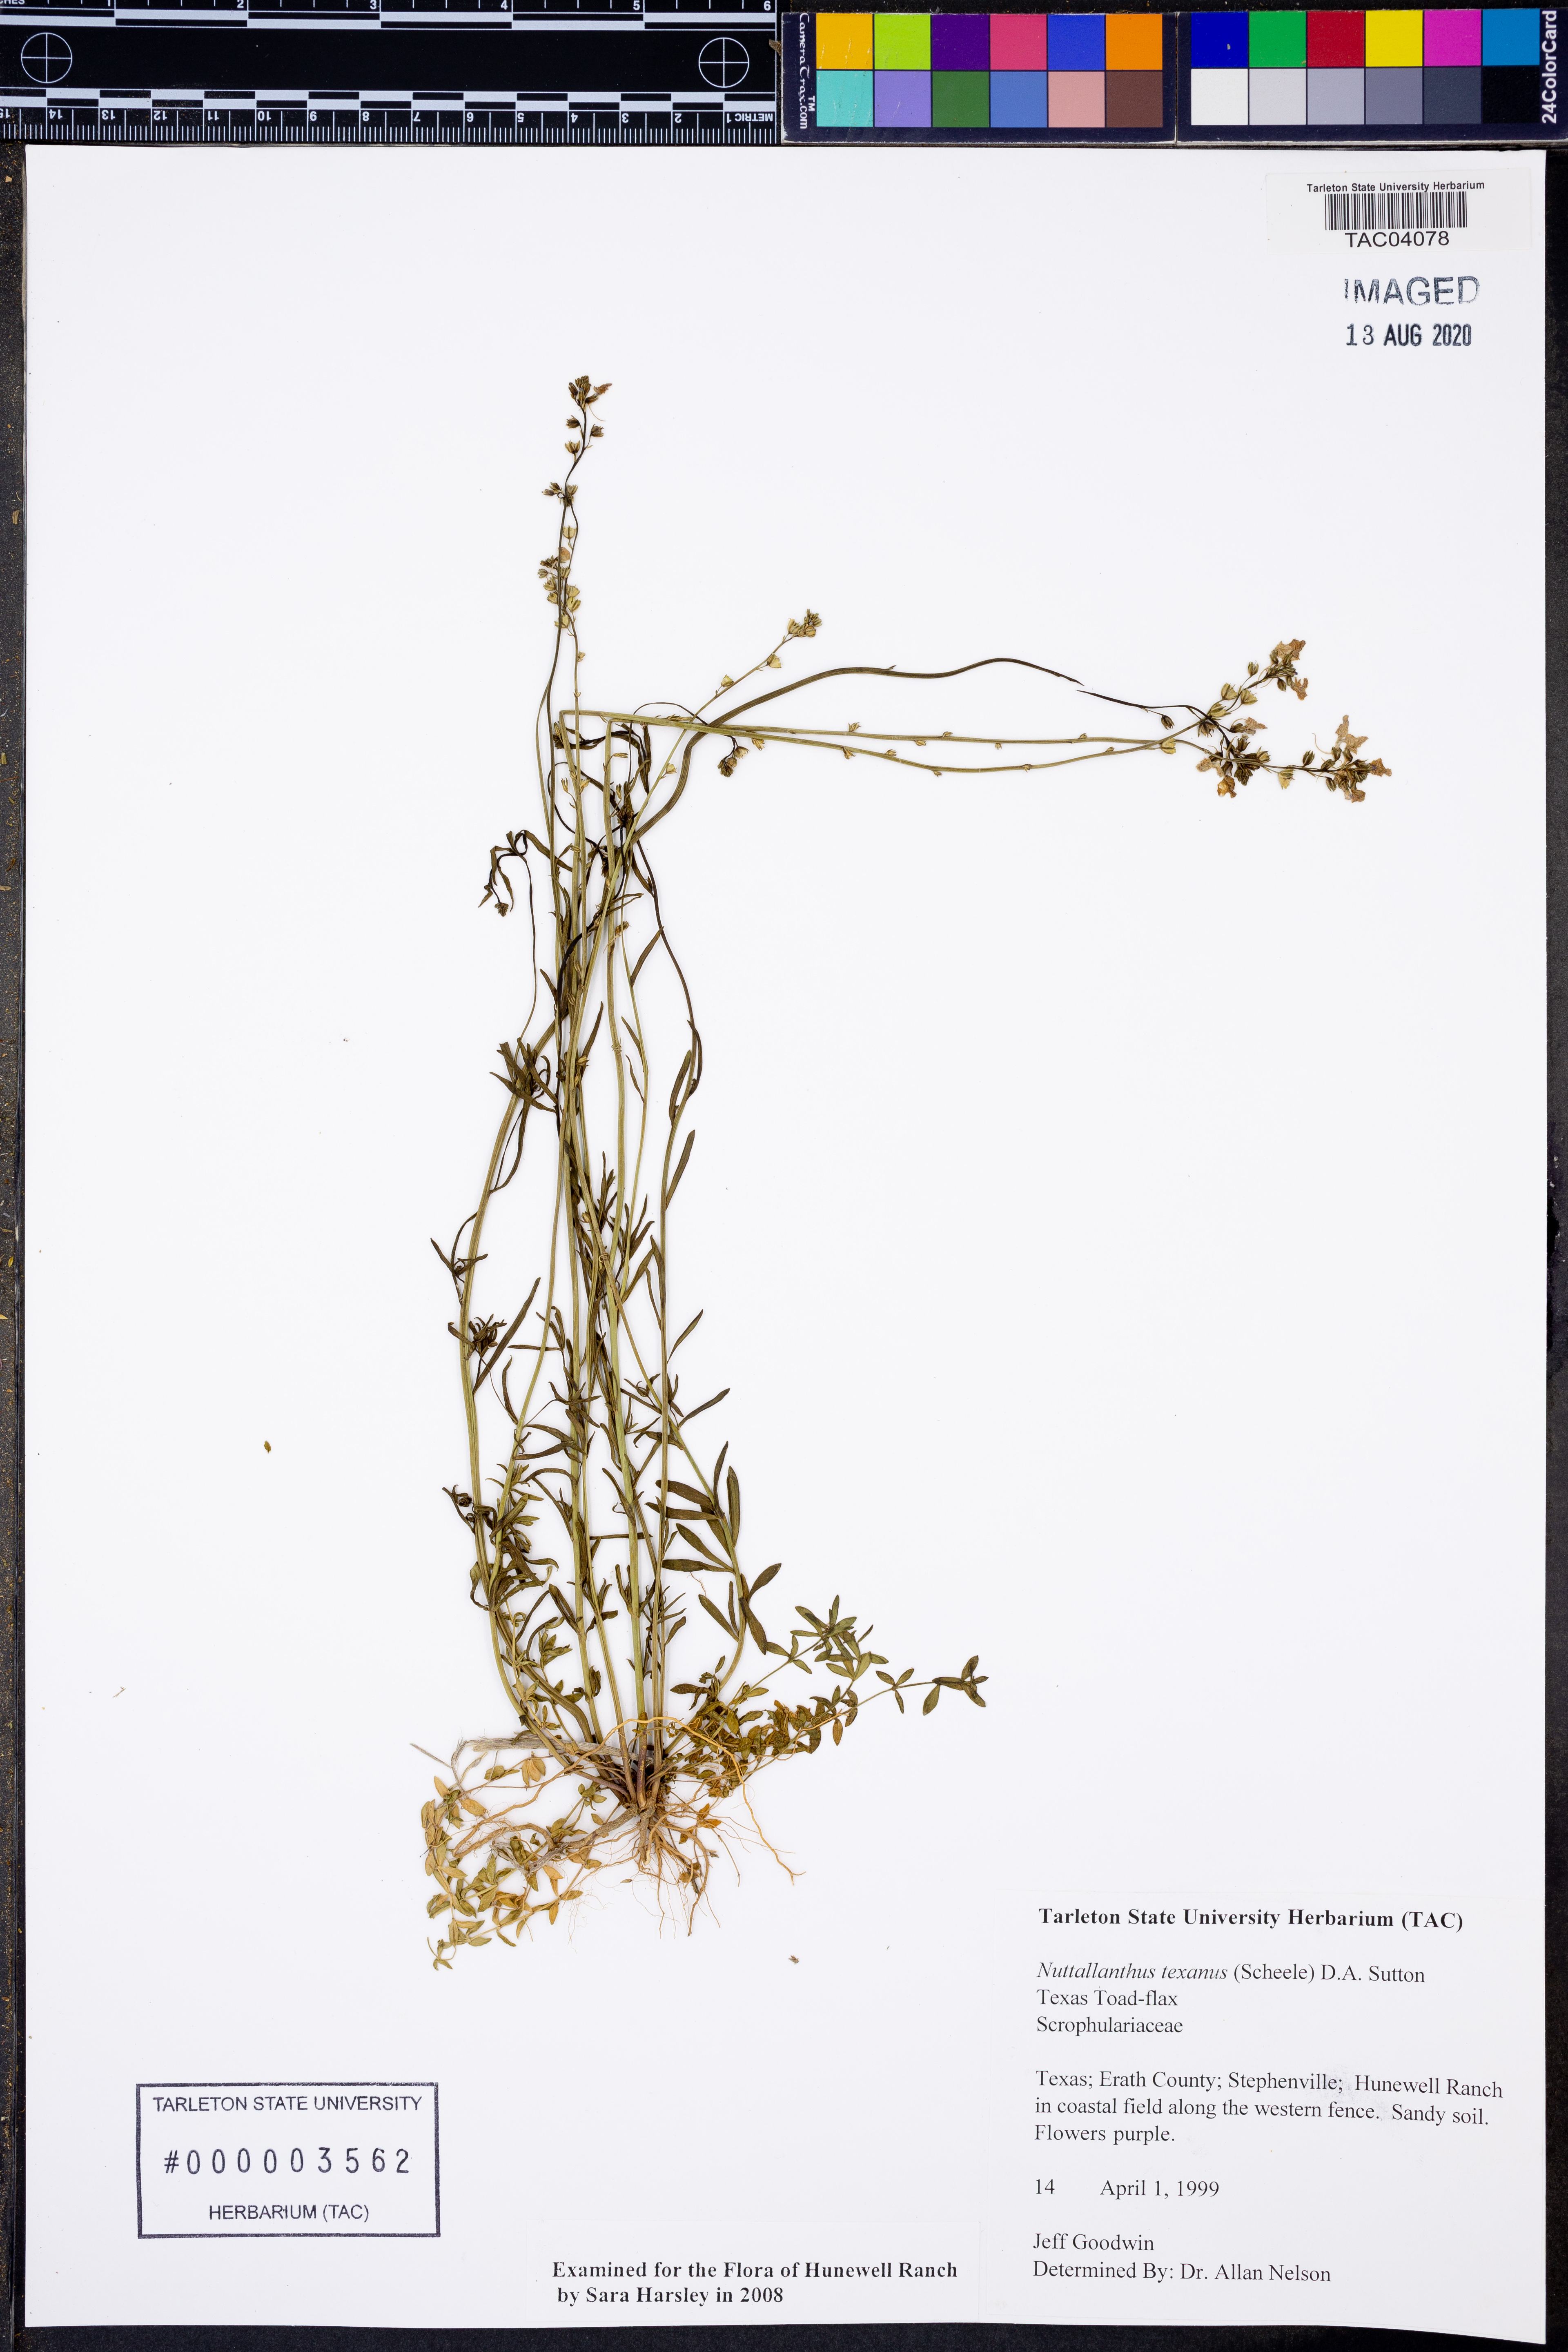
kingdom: Plantae
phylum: Tracheophyta
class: Magnoliopsida
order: Lamiales
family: Plantaginaceae
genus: Nuttallanthus
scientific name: Nuttallanthus texanus
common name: Texas toadflax
